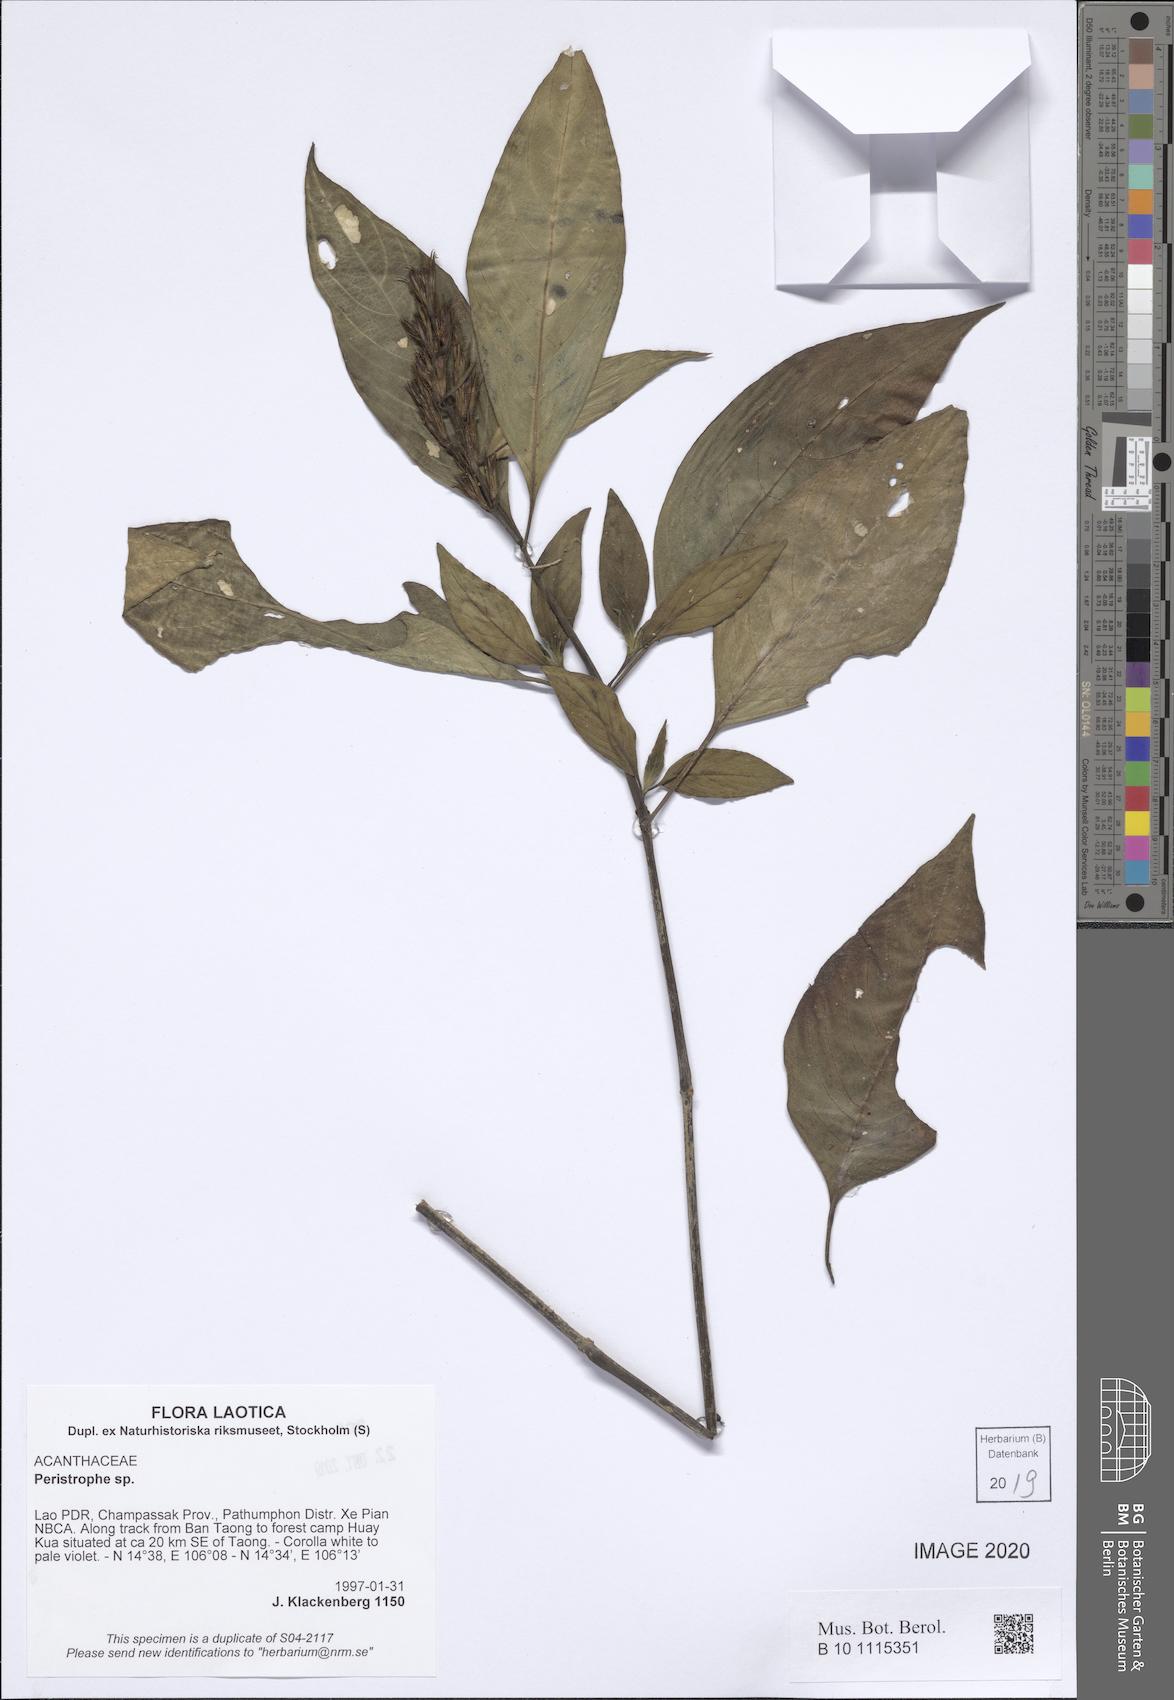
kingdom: Plantae
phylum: Tracheophyta
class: Magnoliopsida
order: Lamiales
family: Acanthaceae
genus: Dicliptera
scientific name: Dicliptera
